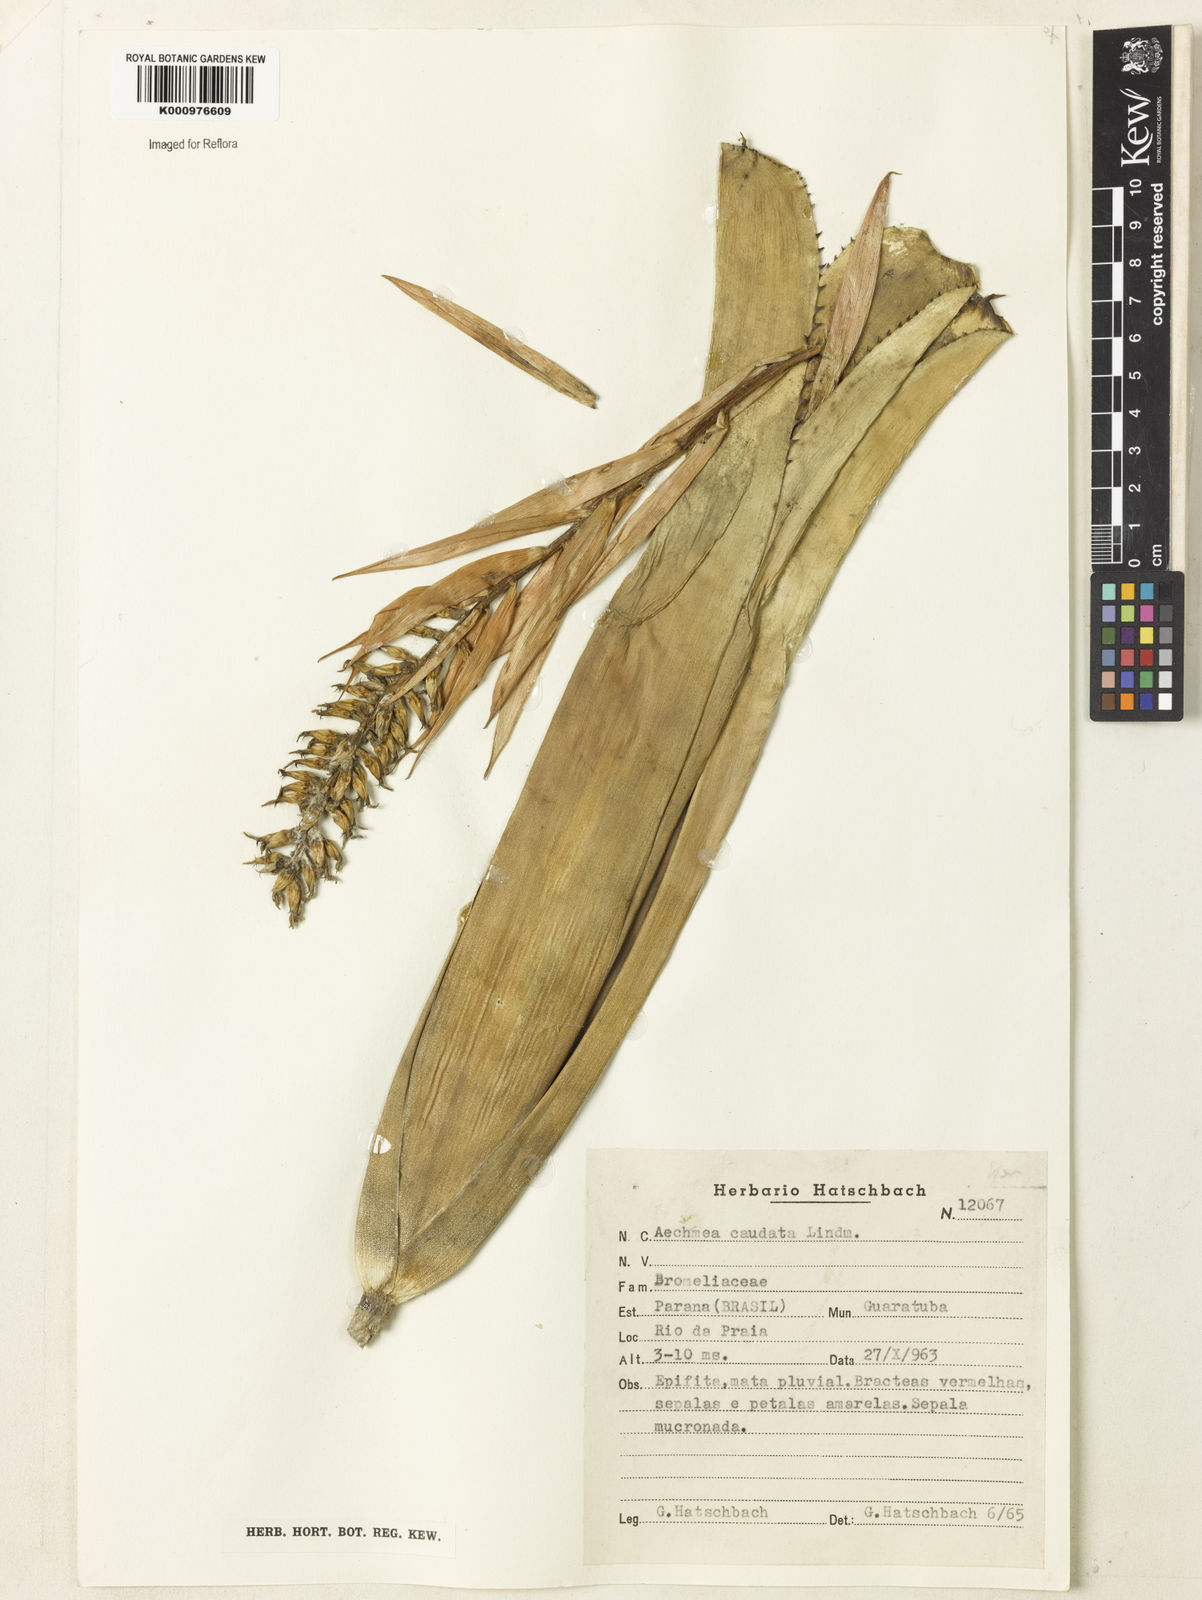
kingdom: Plantae
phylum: Tracheophyta
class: Liliopsida
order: Poales
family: Bromeliaceae
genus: Aechmea
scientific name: Aechmea caudata
